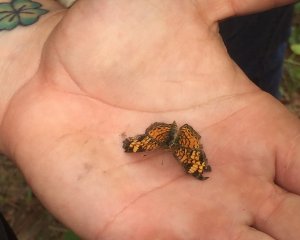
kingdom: Animalia
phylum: Arthropoda
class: Insecta
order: Lepidoptera
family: Nymphalidae
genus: Phyciodes
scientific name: Phyciodes tharos
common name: Pearl Crescent
